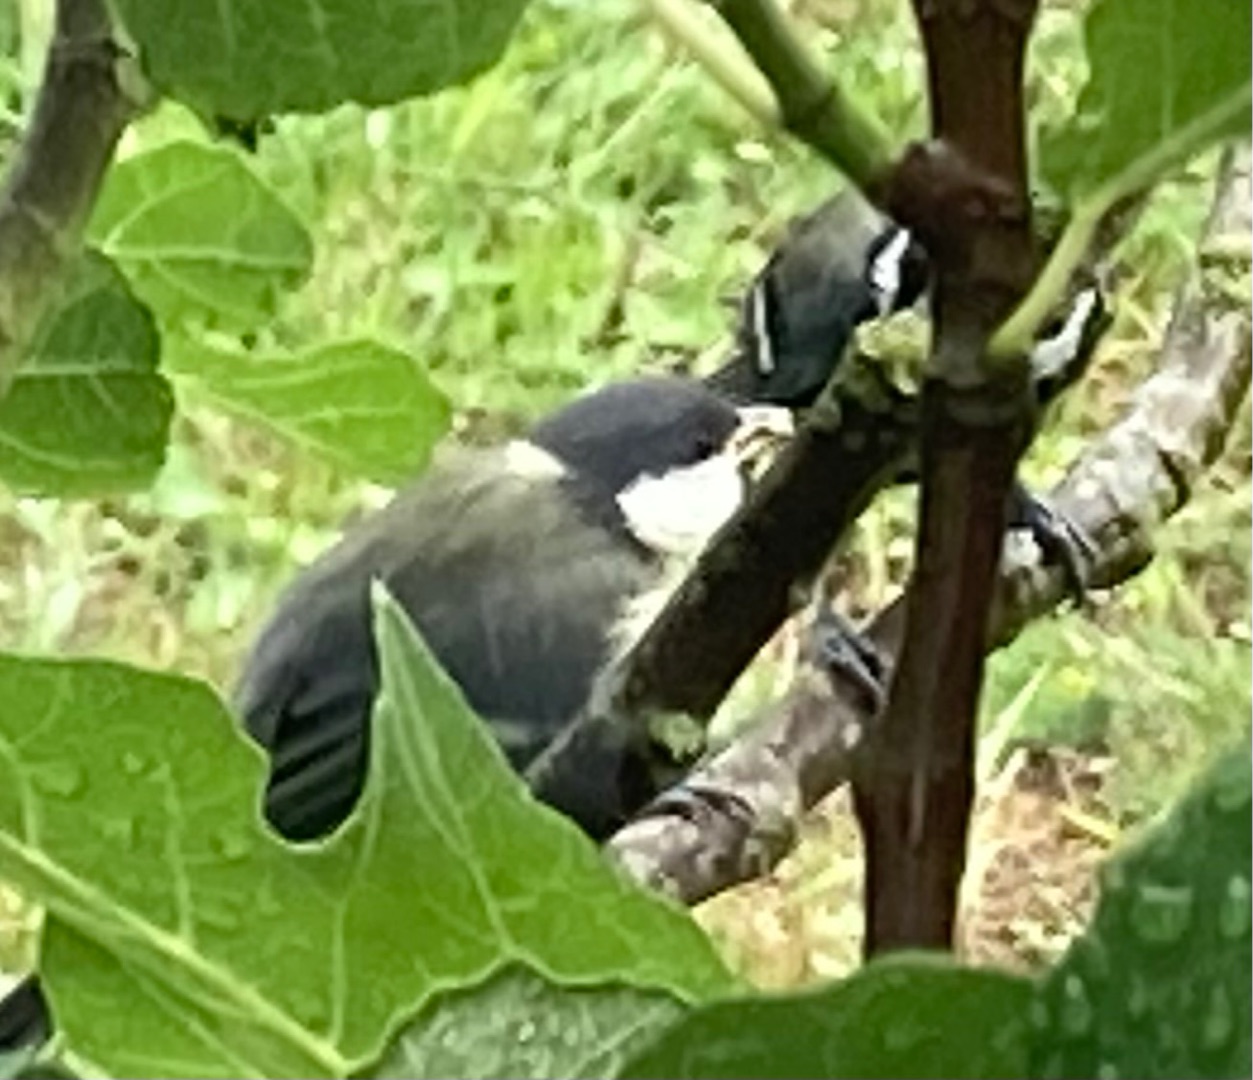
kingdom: Animalia
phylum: Chordata
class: Aves
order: Passeriformes
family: Paridae
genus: Parus
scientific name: Parus major
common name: Musvit
